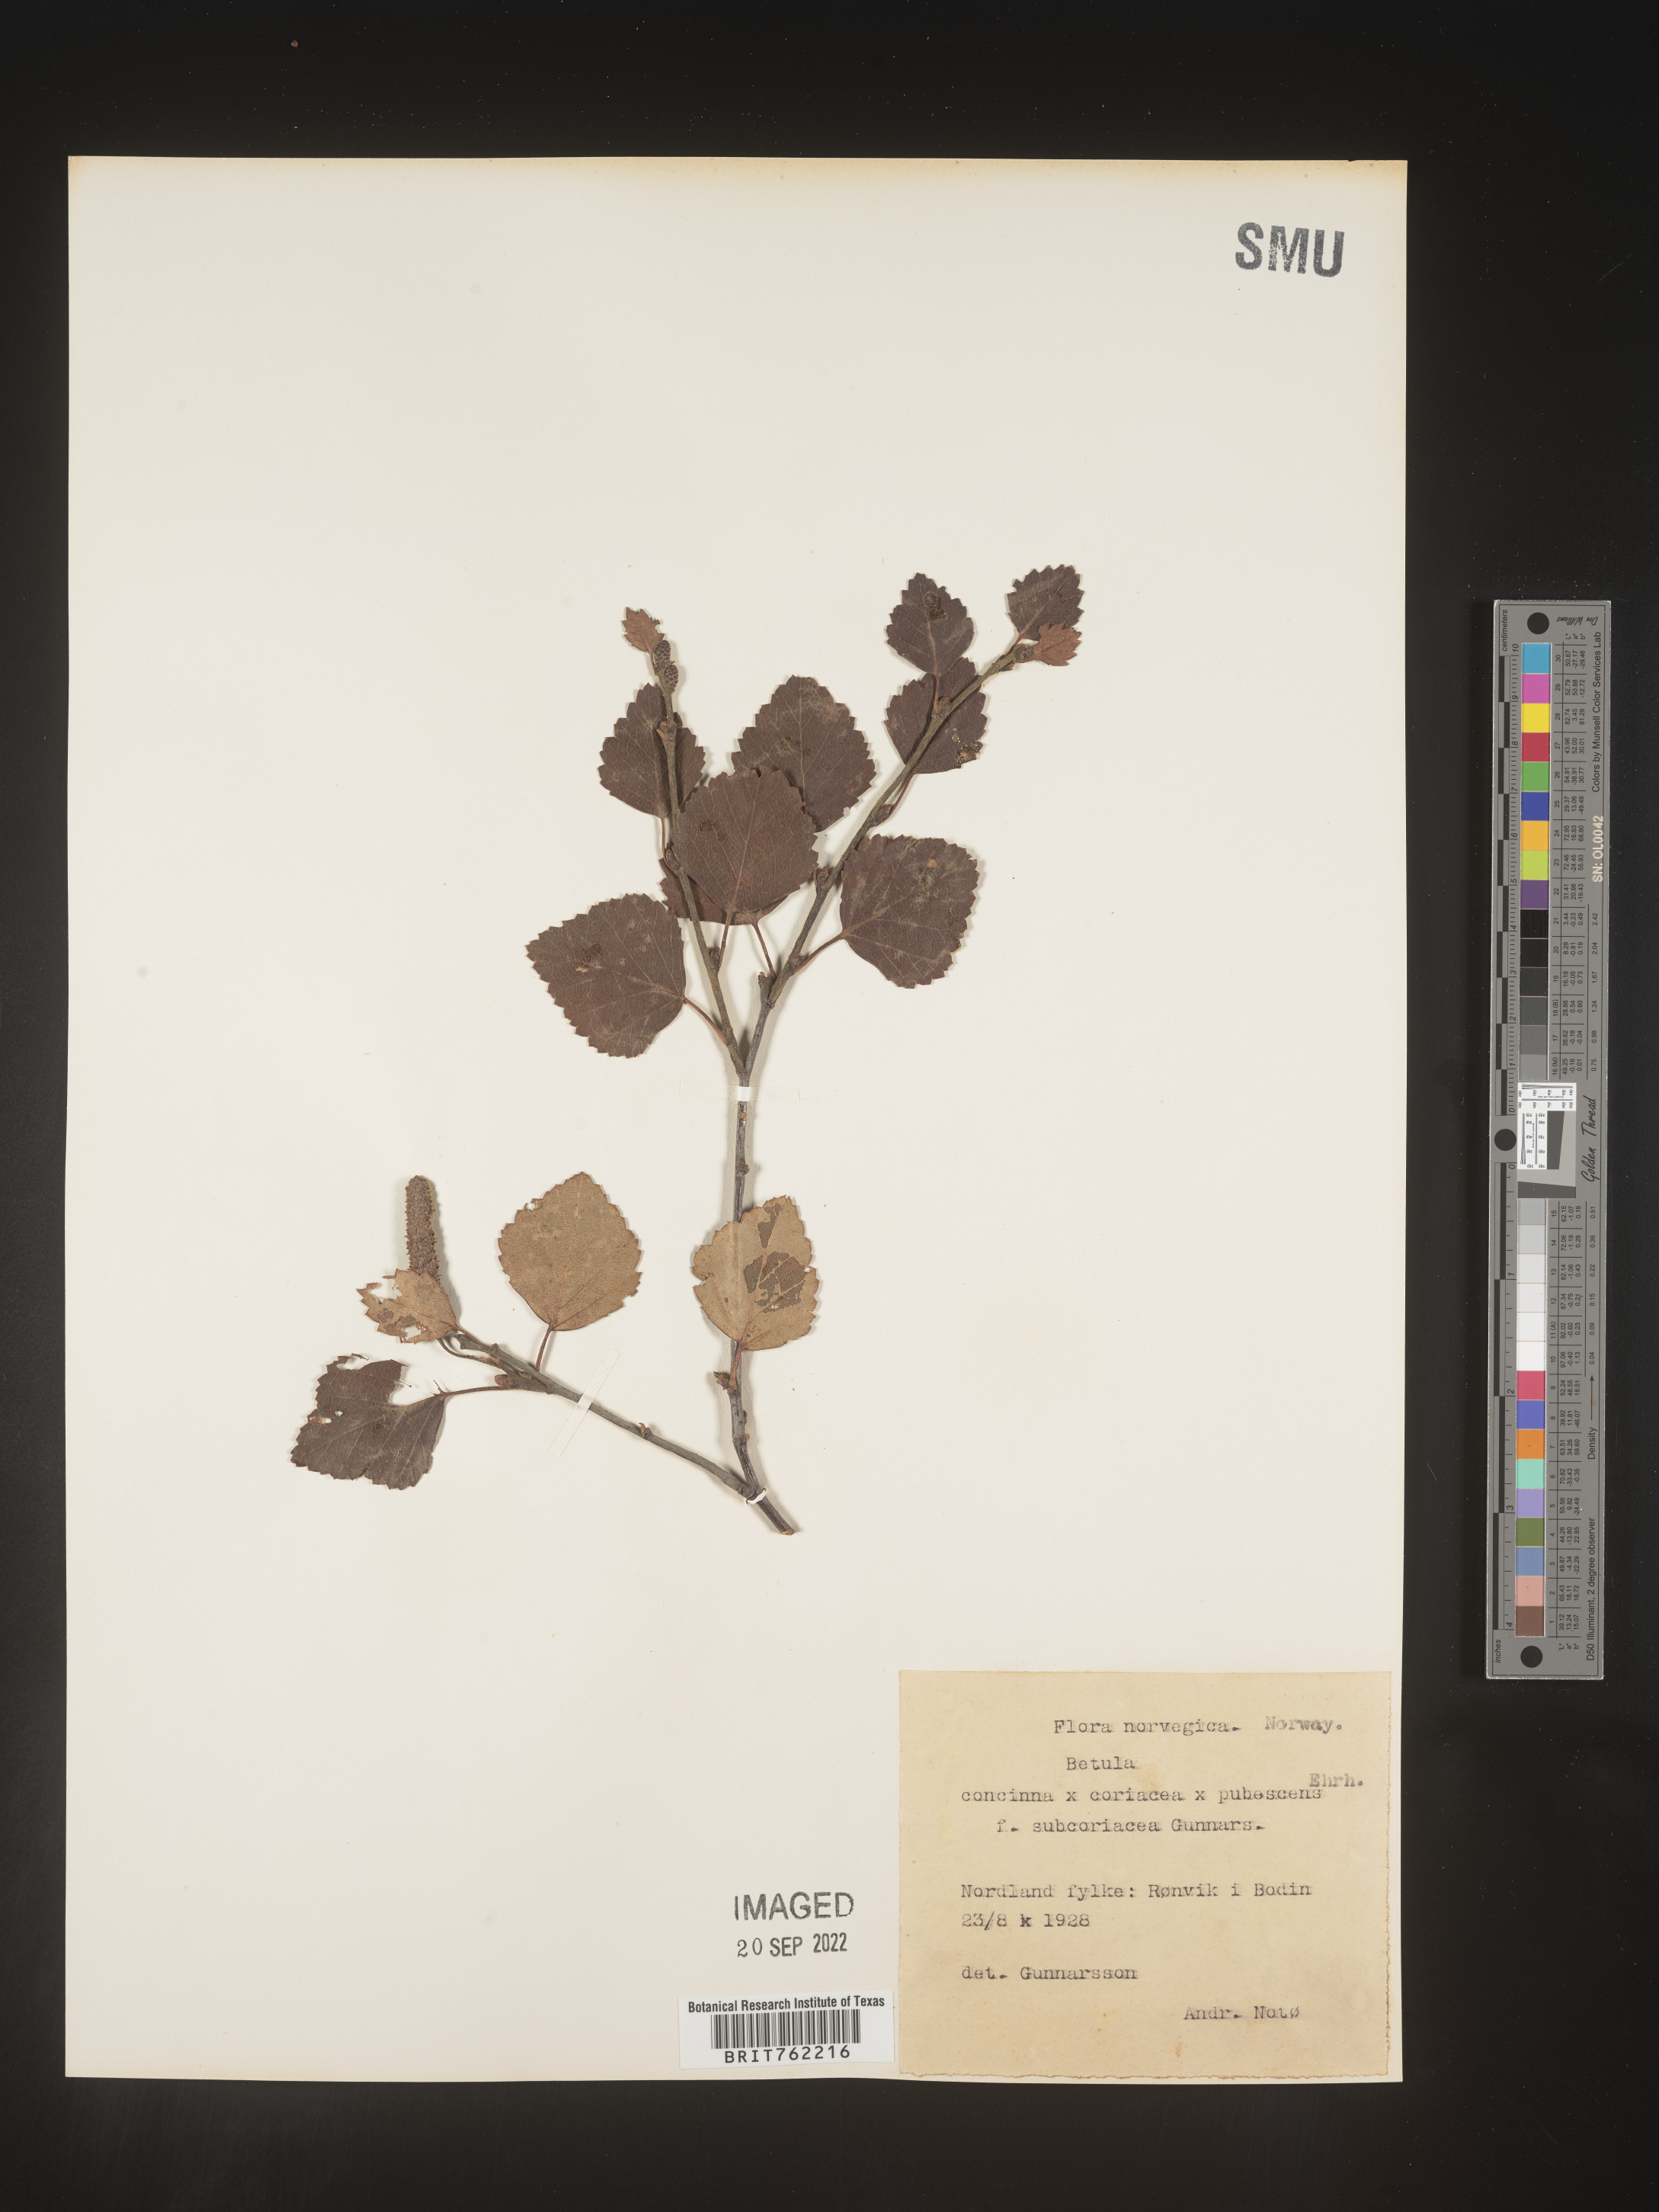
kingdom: Plantae
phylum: Tracheophyta
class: Magnoliopsida
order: Fagales
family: Betulaceae
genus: Betula
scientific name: Betula
